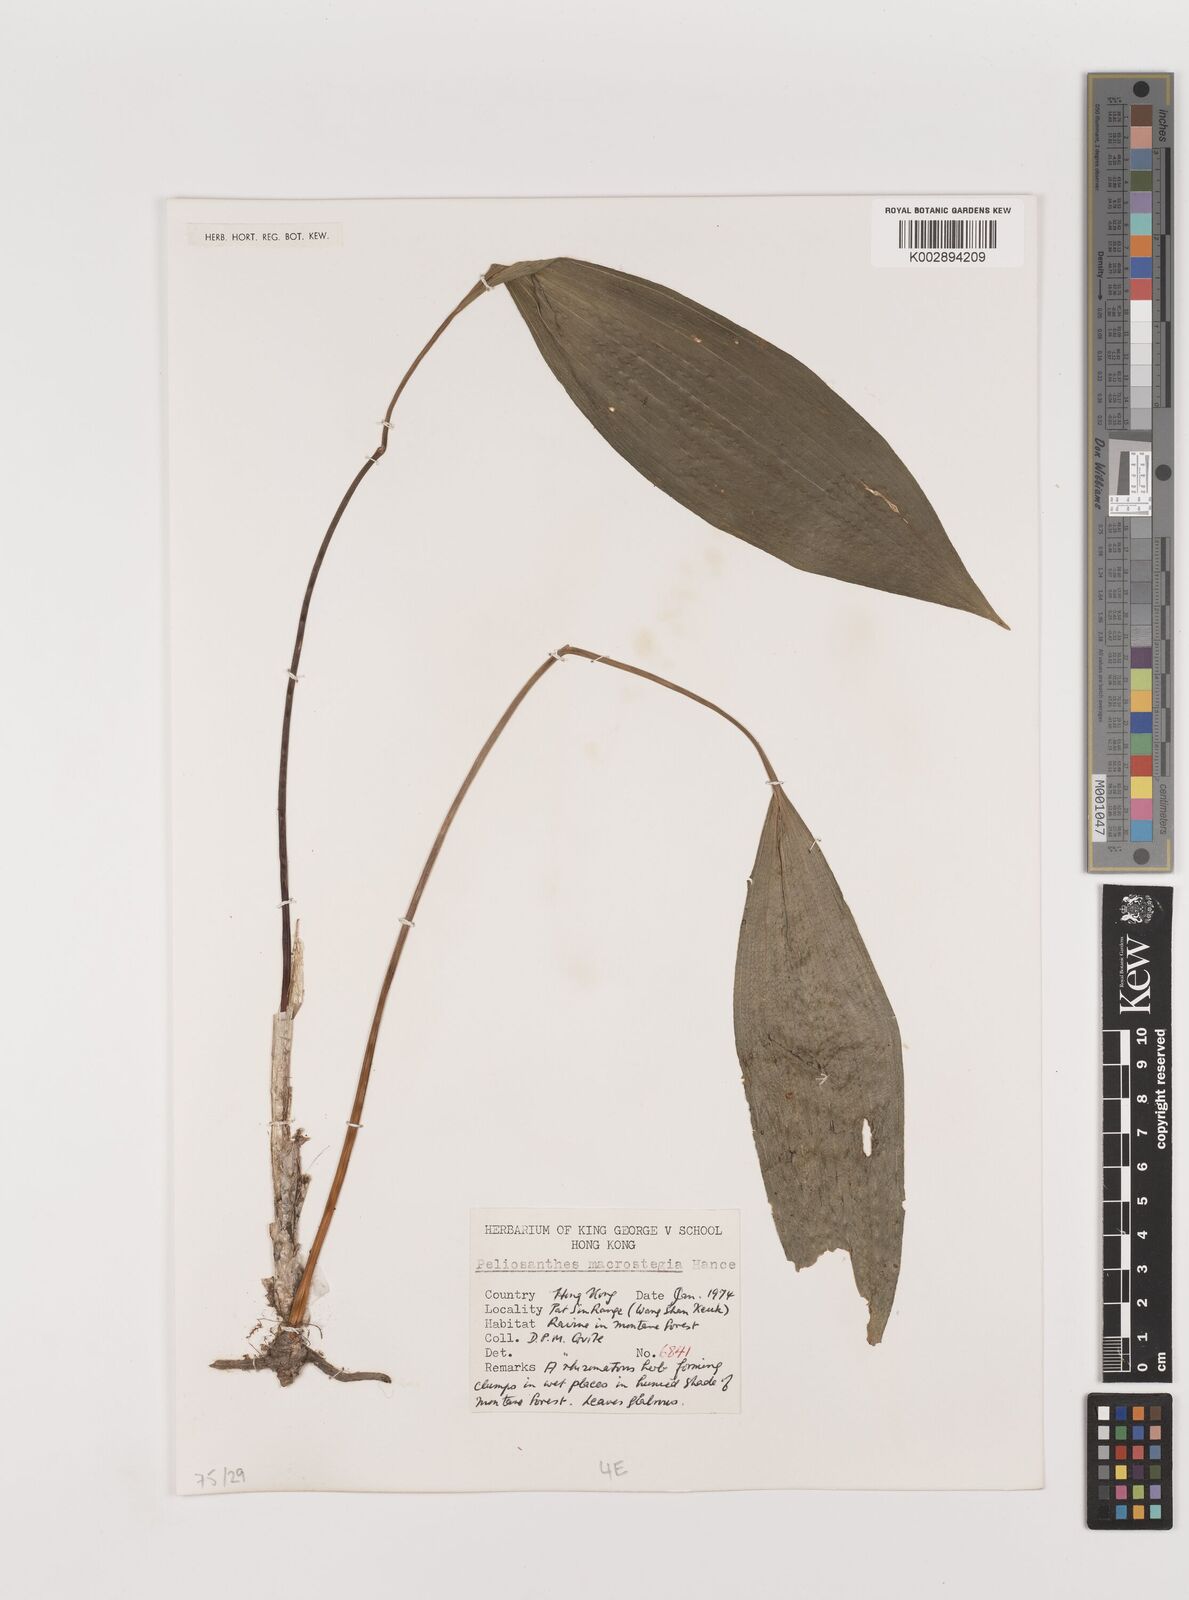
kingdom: Plantae
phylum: Tracheophyta
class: Liliopsida
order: Asparagales
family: Asparagaceae
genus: Peliosanthes
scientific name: Peliosanthes teta
